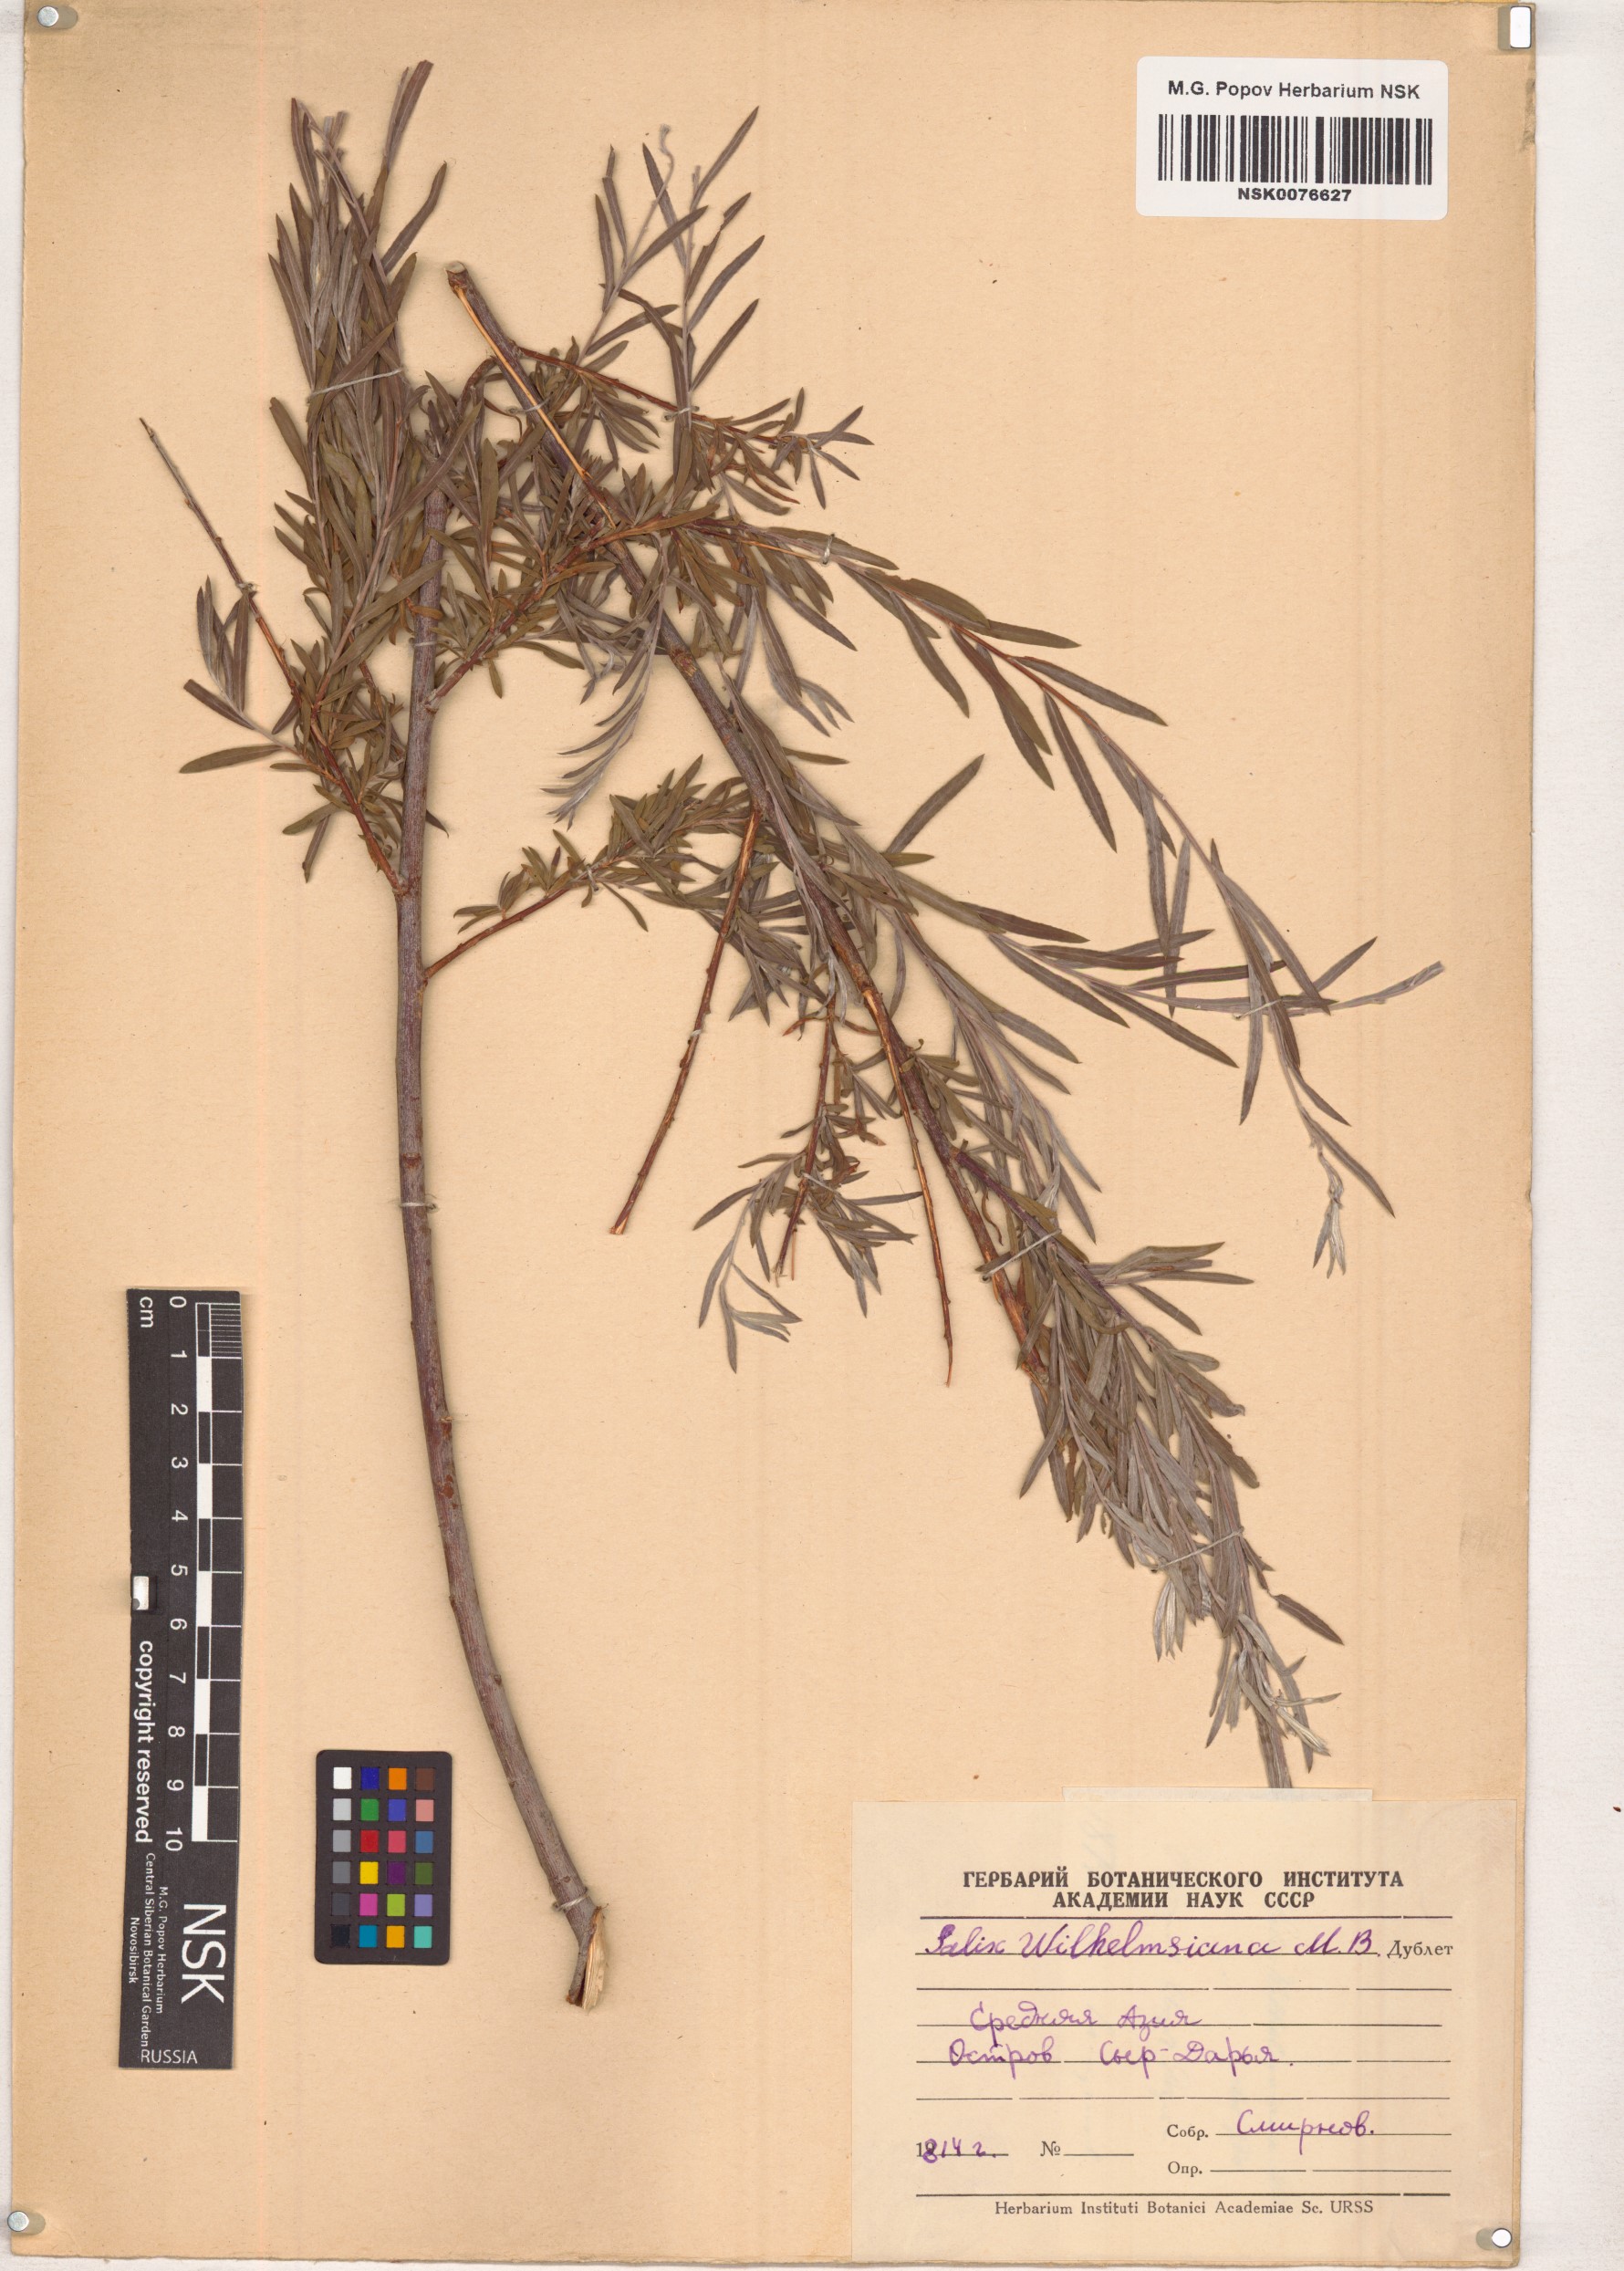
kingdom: Plantae
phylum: Tracheophyta
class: Magnoliopsida
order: Malpighiales
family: Salicaceae
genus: Salix
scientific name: Salix wilhelmsiana
